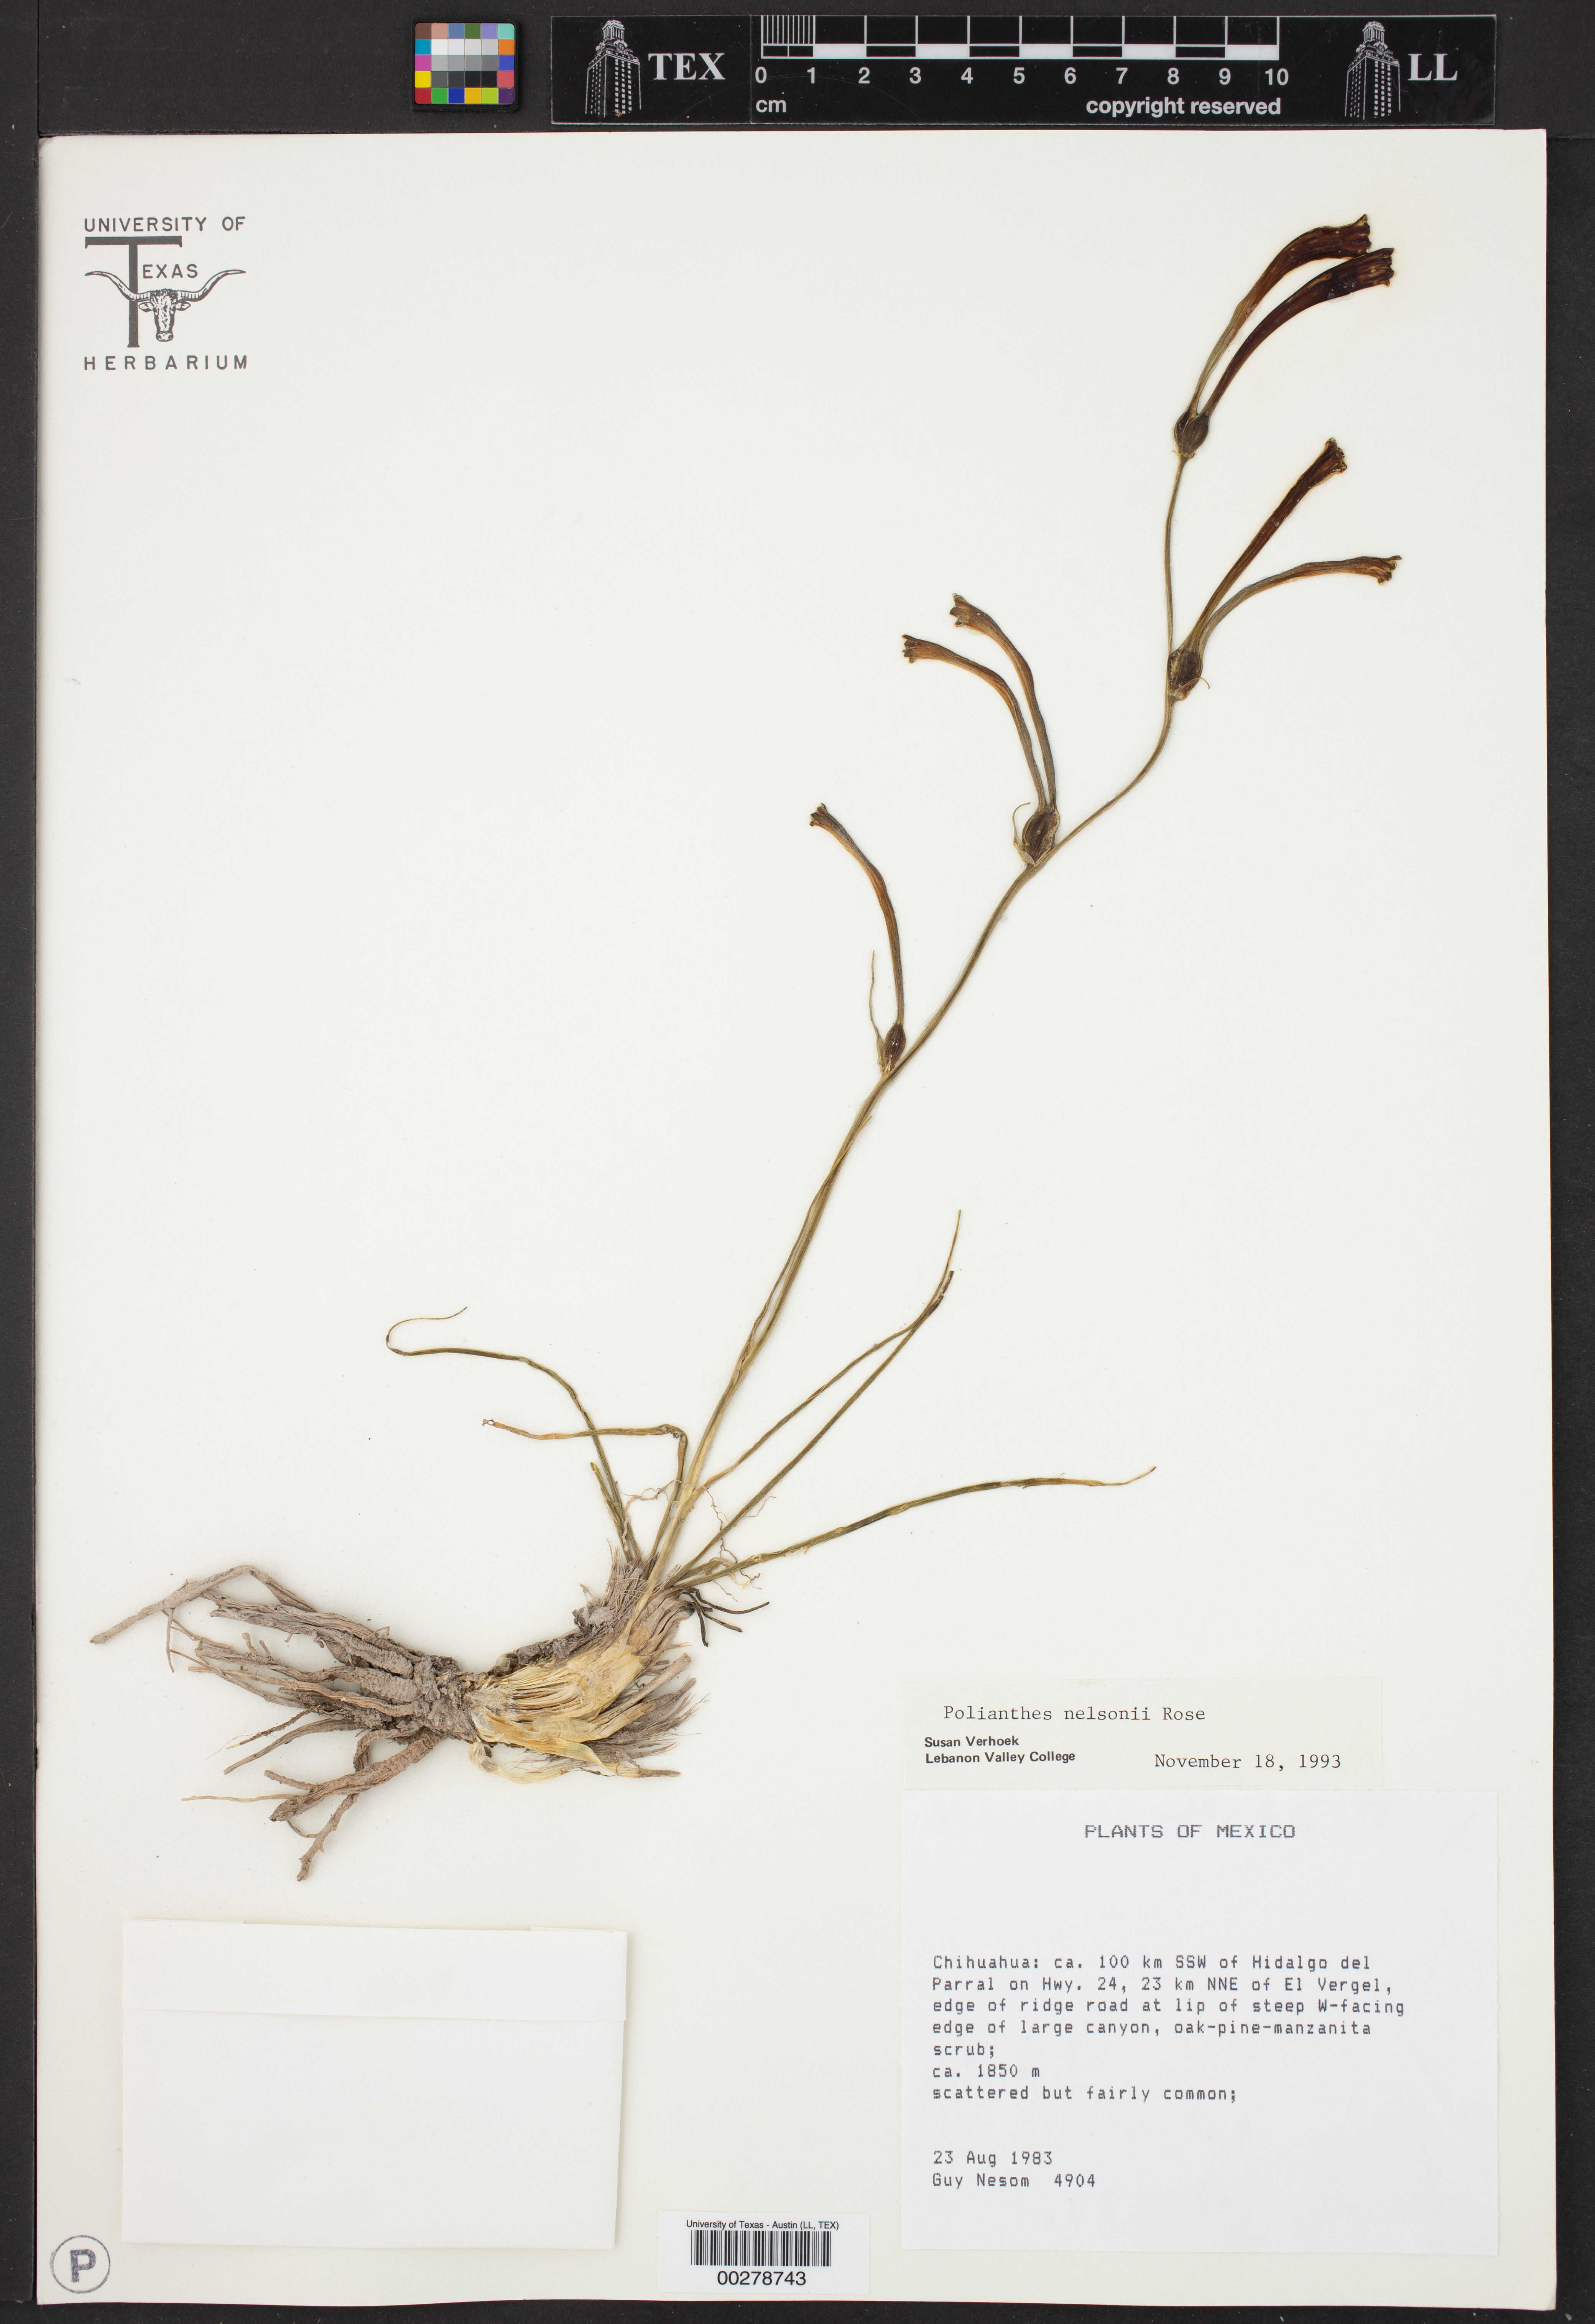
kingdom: Plantae
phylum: Tracheophyta
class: Liliopsida
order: Asparagales
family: Asparagaceae
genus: Agave
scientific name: Agave neonelsonii
